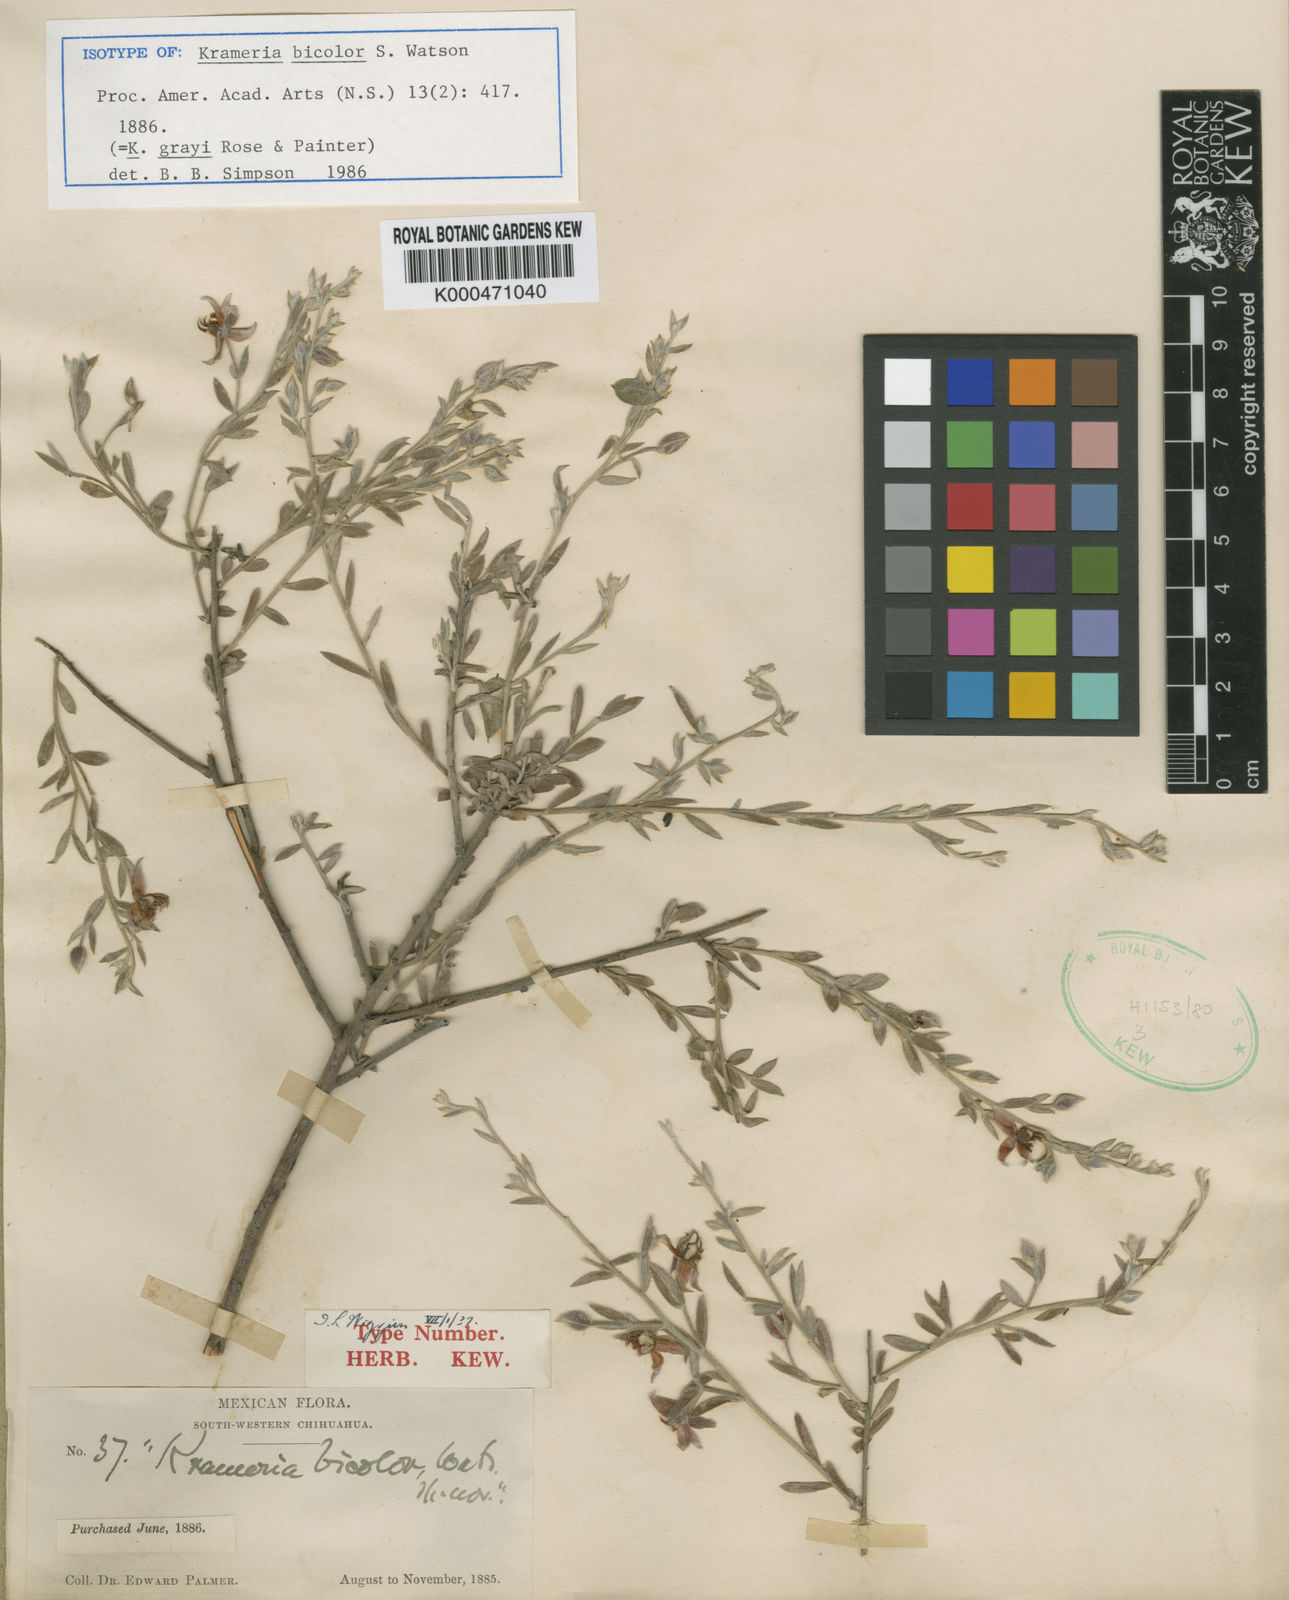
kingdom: Plantae
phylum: Tracheophyta
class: Magnoliopsida
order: Zygophyllales
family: Krameriaceae
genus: Krameria
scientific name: Krameria bicolor
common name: White ratany
